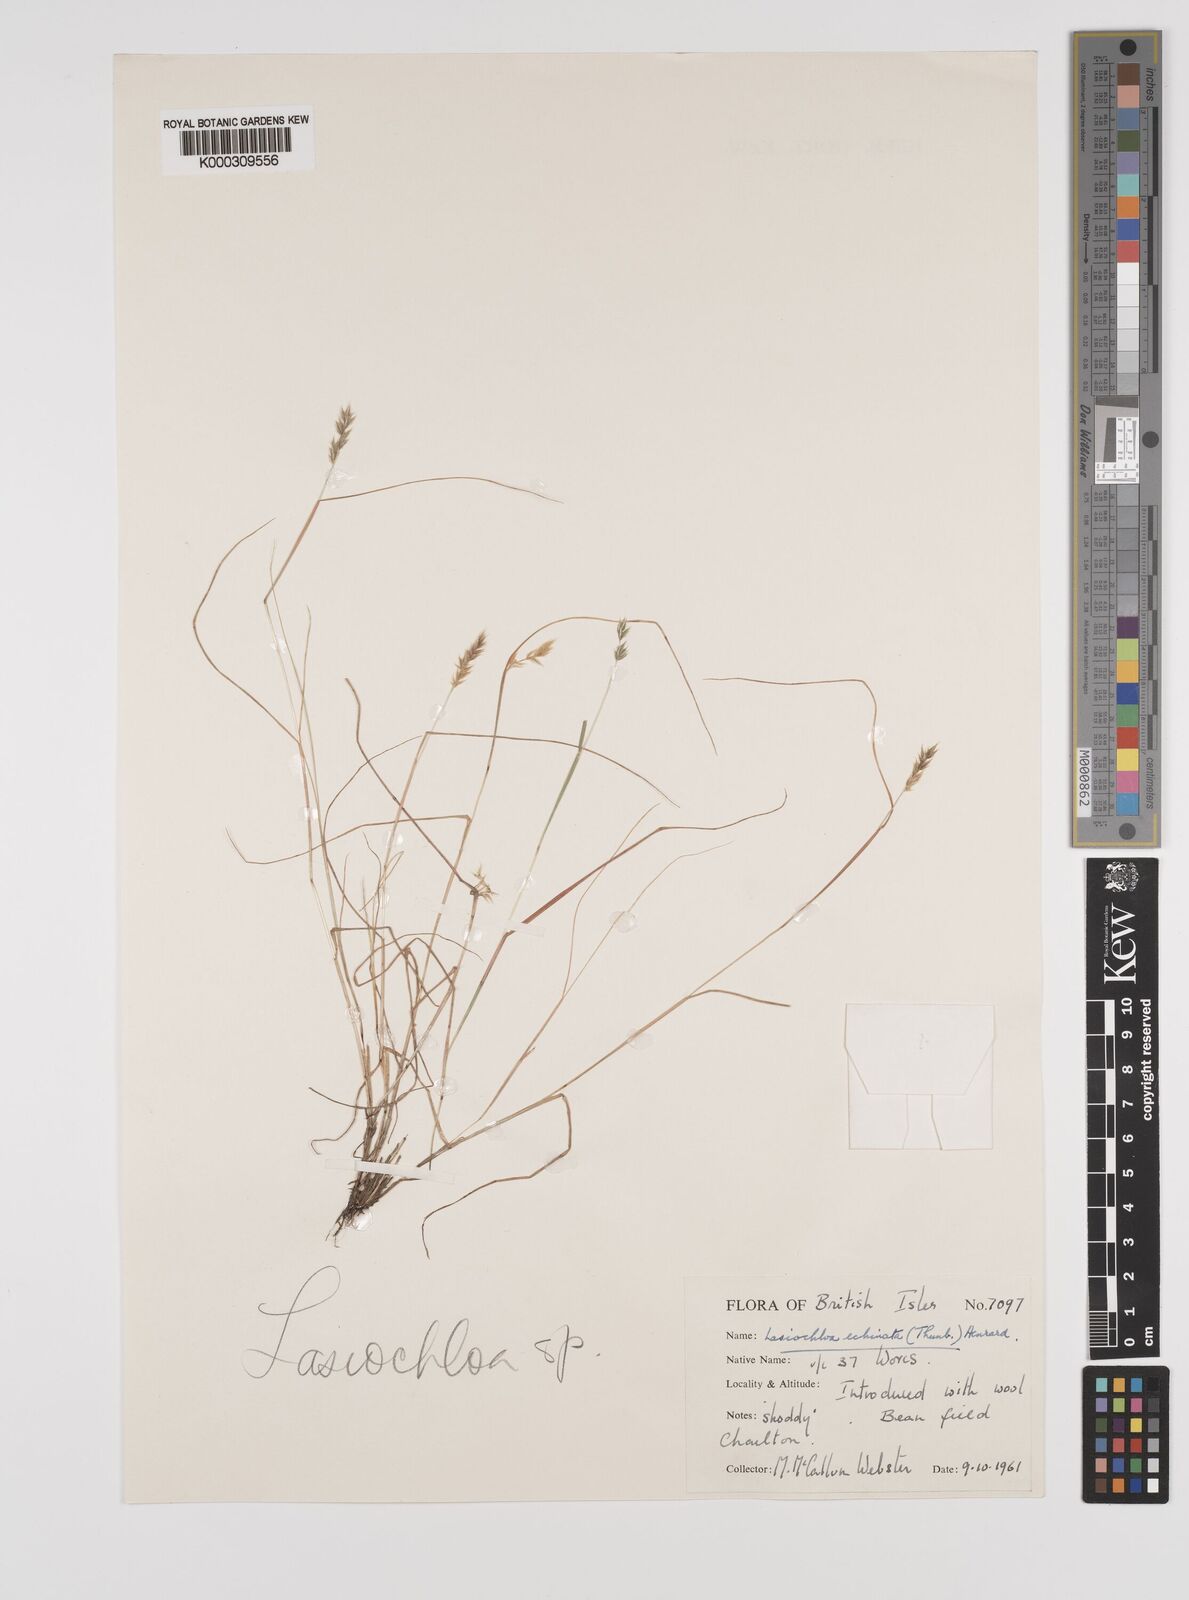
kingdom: Plantae
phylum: Tracheophyta
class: Liliopsida
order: Poales
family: Poaceae
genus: Tribolium
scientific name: Tribolium echinatum
